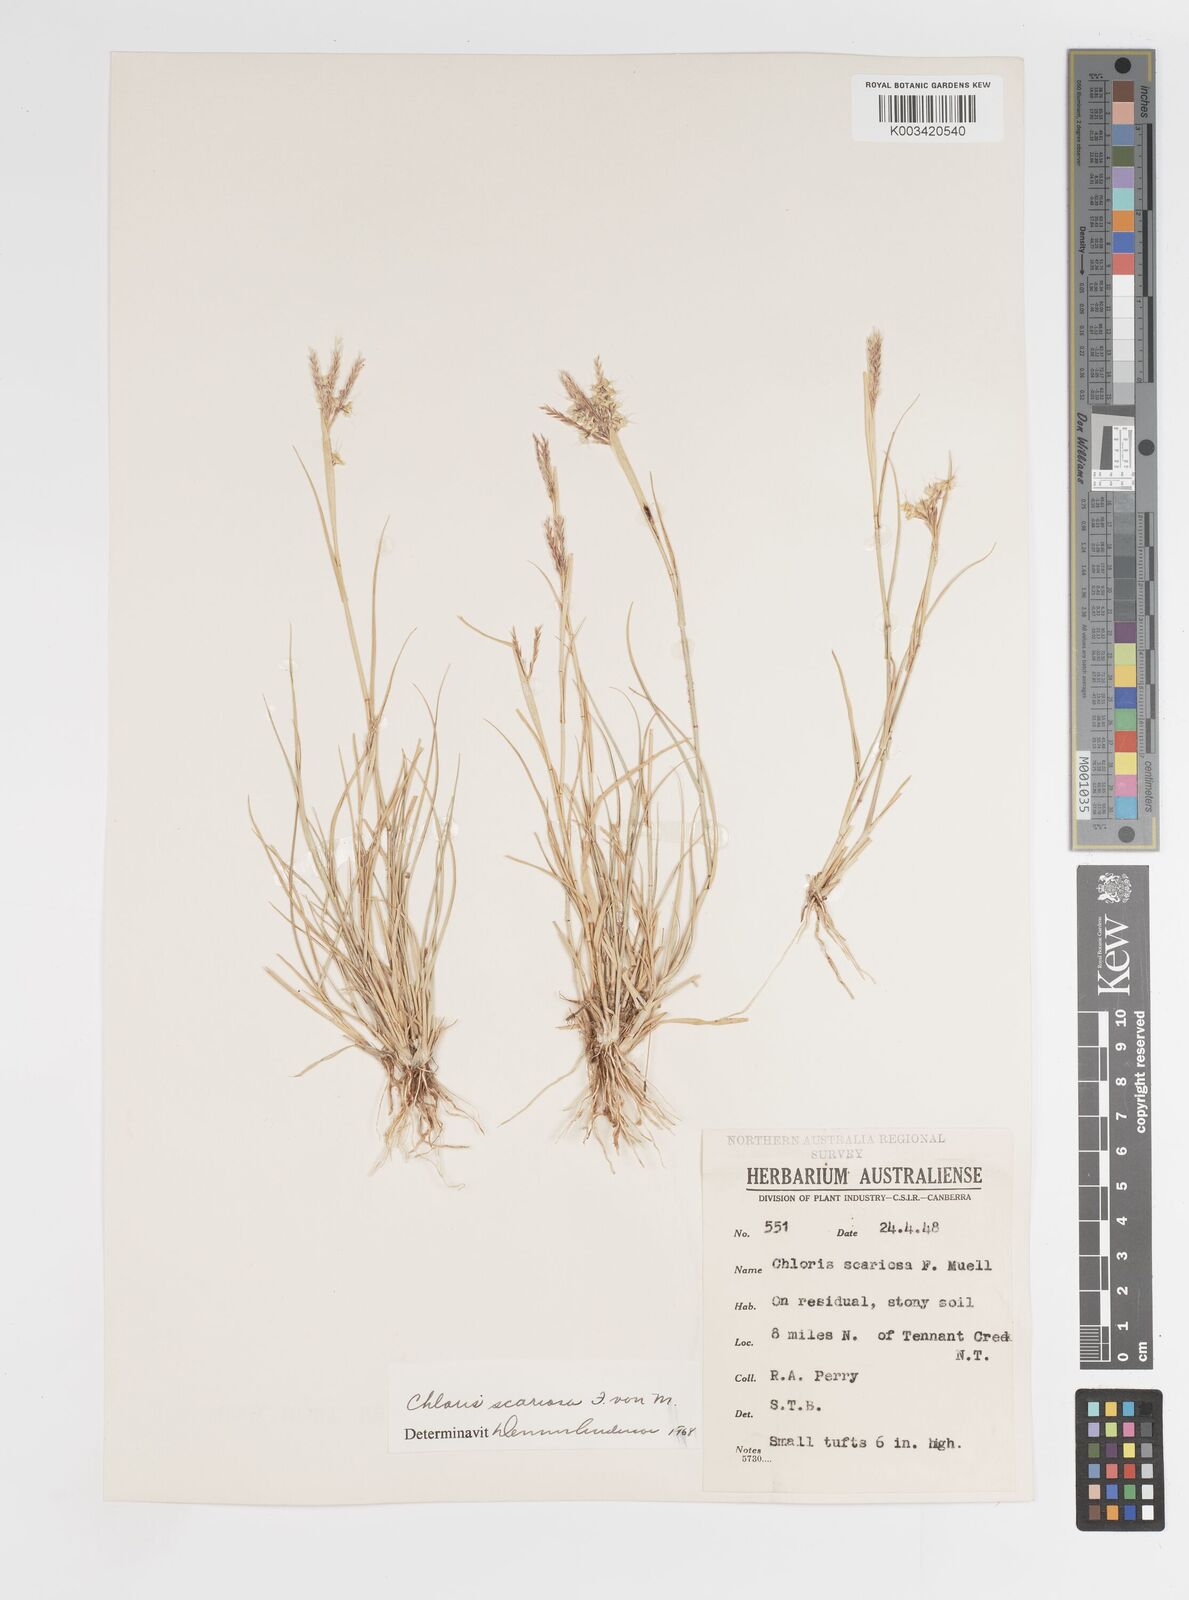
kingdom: Plantae
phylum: Tracheophyta
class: Liliopsida
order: Poales
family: Poaceae
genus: Oxychloris
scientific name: Oxychloris scariosa
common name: Winged windmill grass
